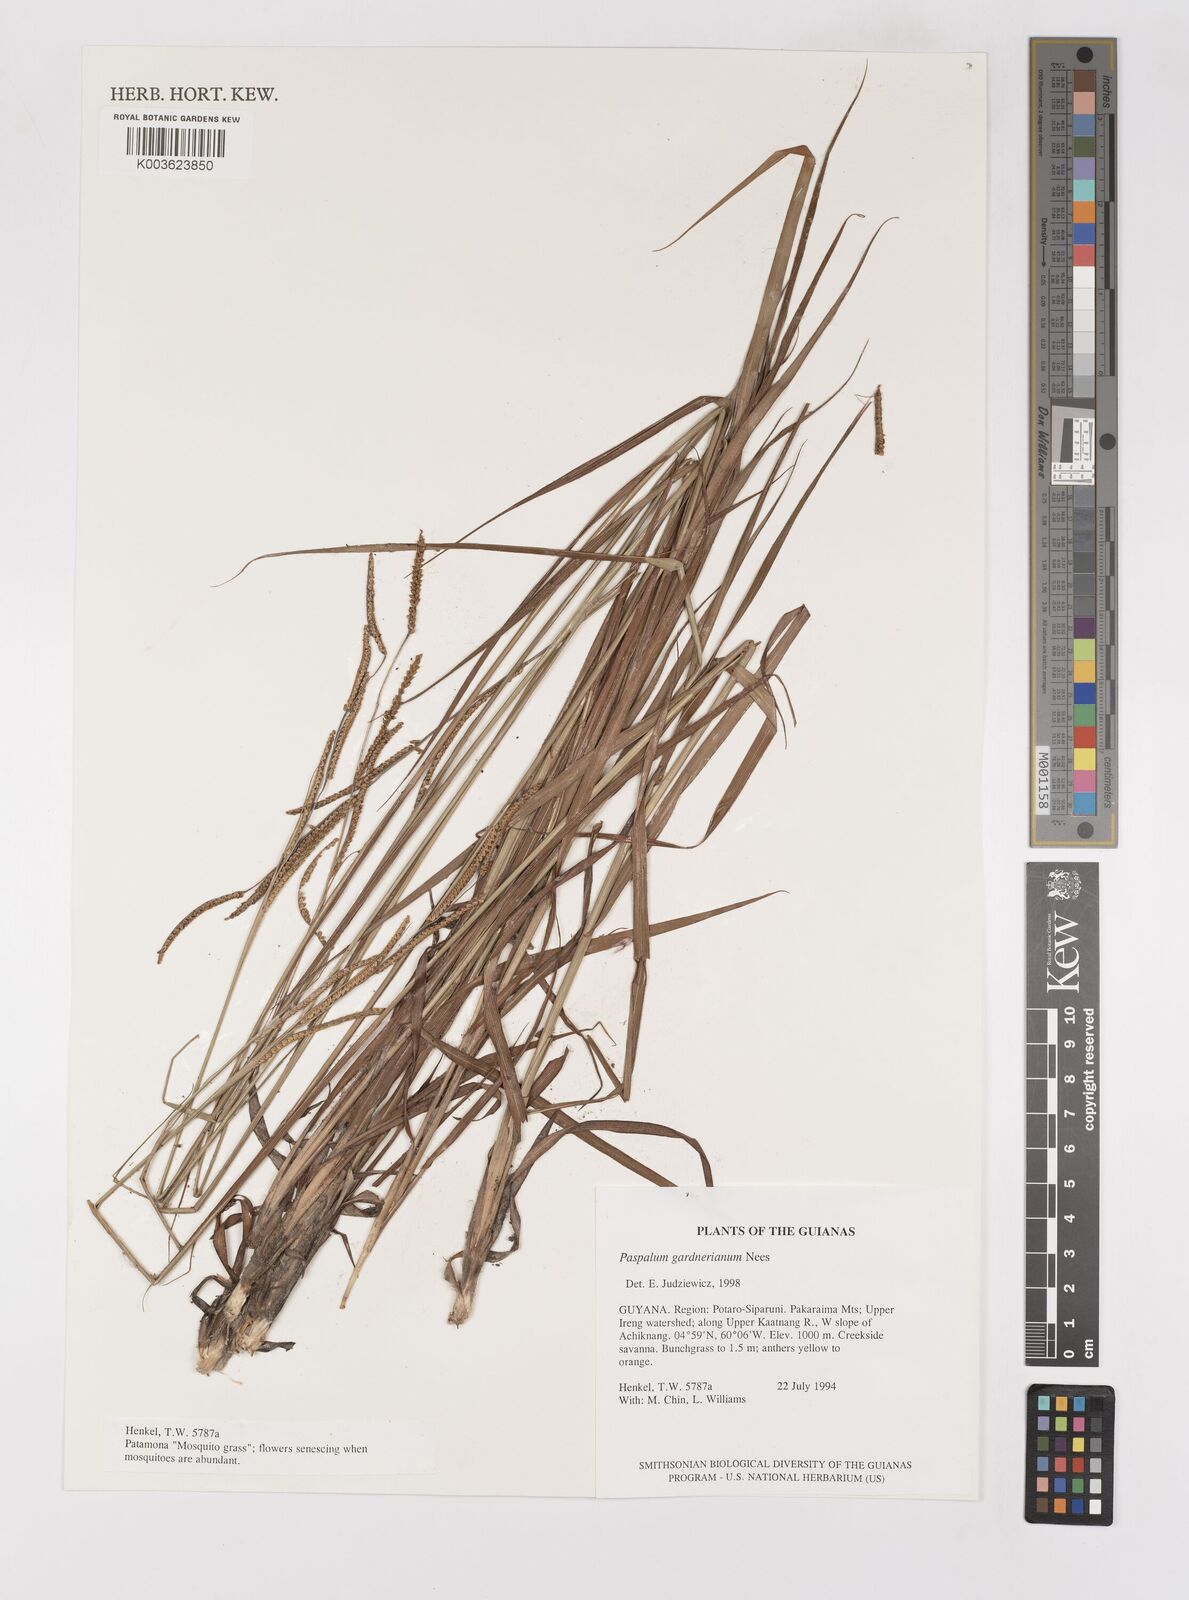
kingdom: Plantae
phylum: Tracheophyta
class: Liliopsida
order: Poales
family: Poaceae
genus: Paspalum
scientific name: Paspalum gardnerianum
